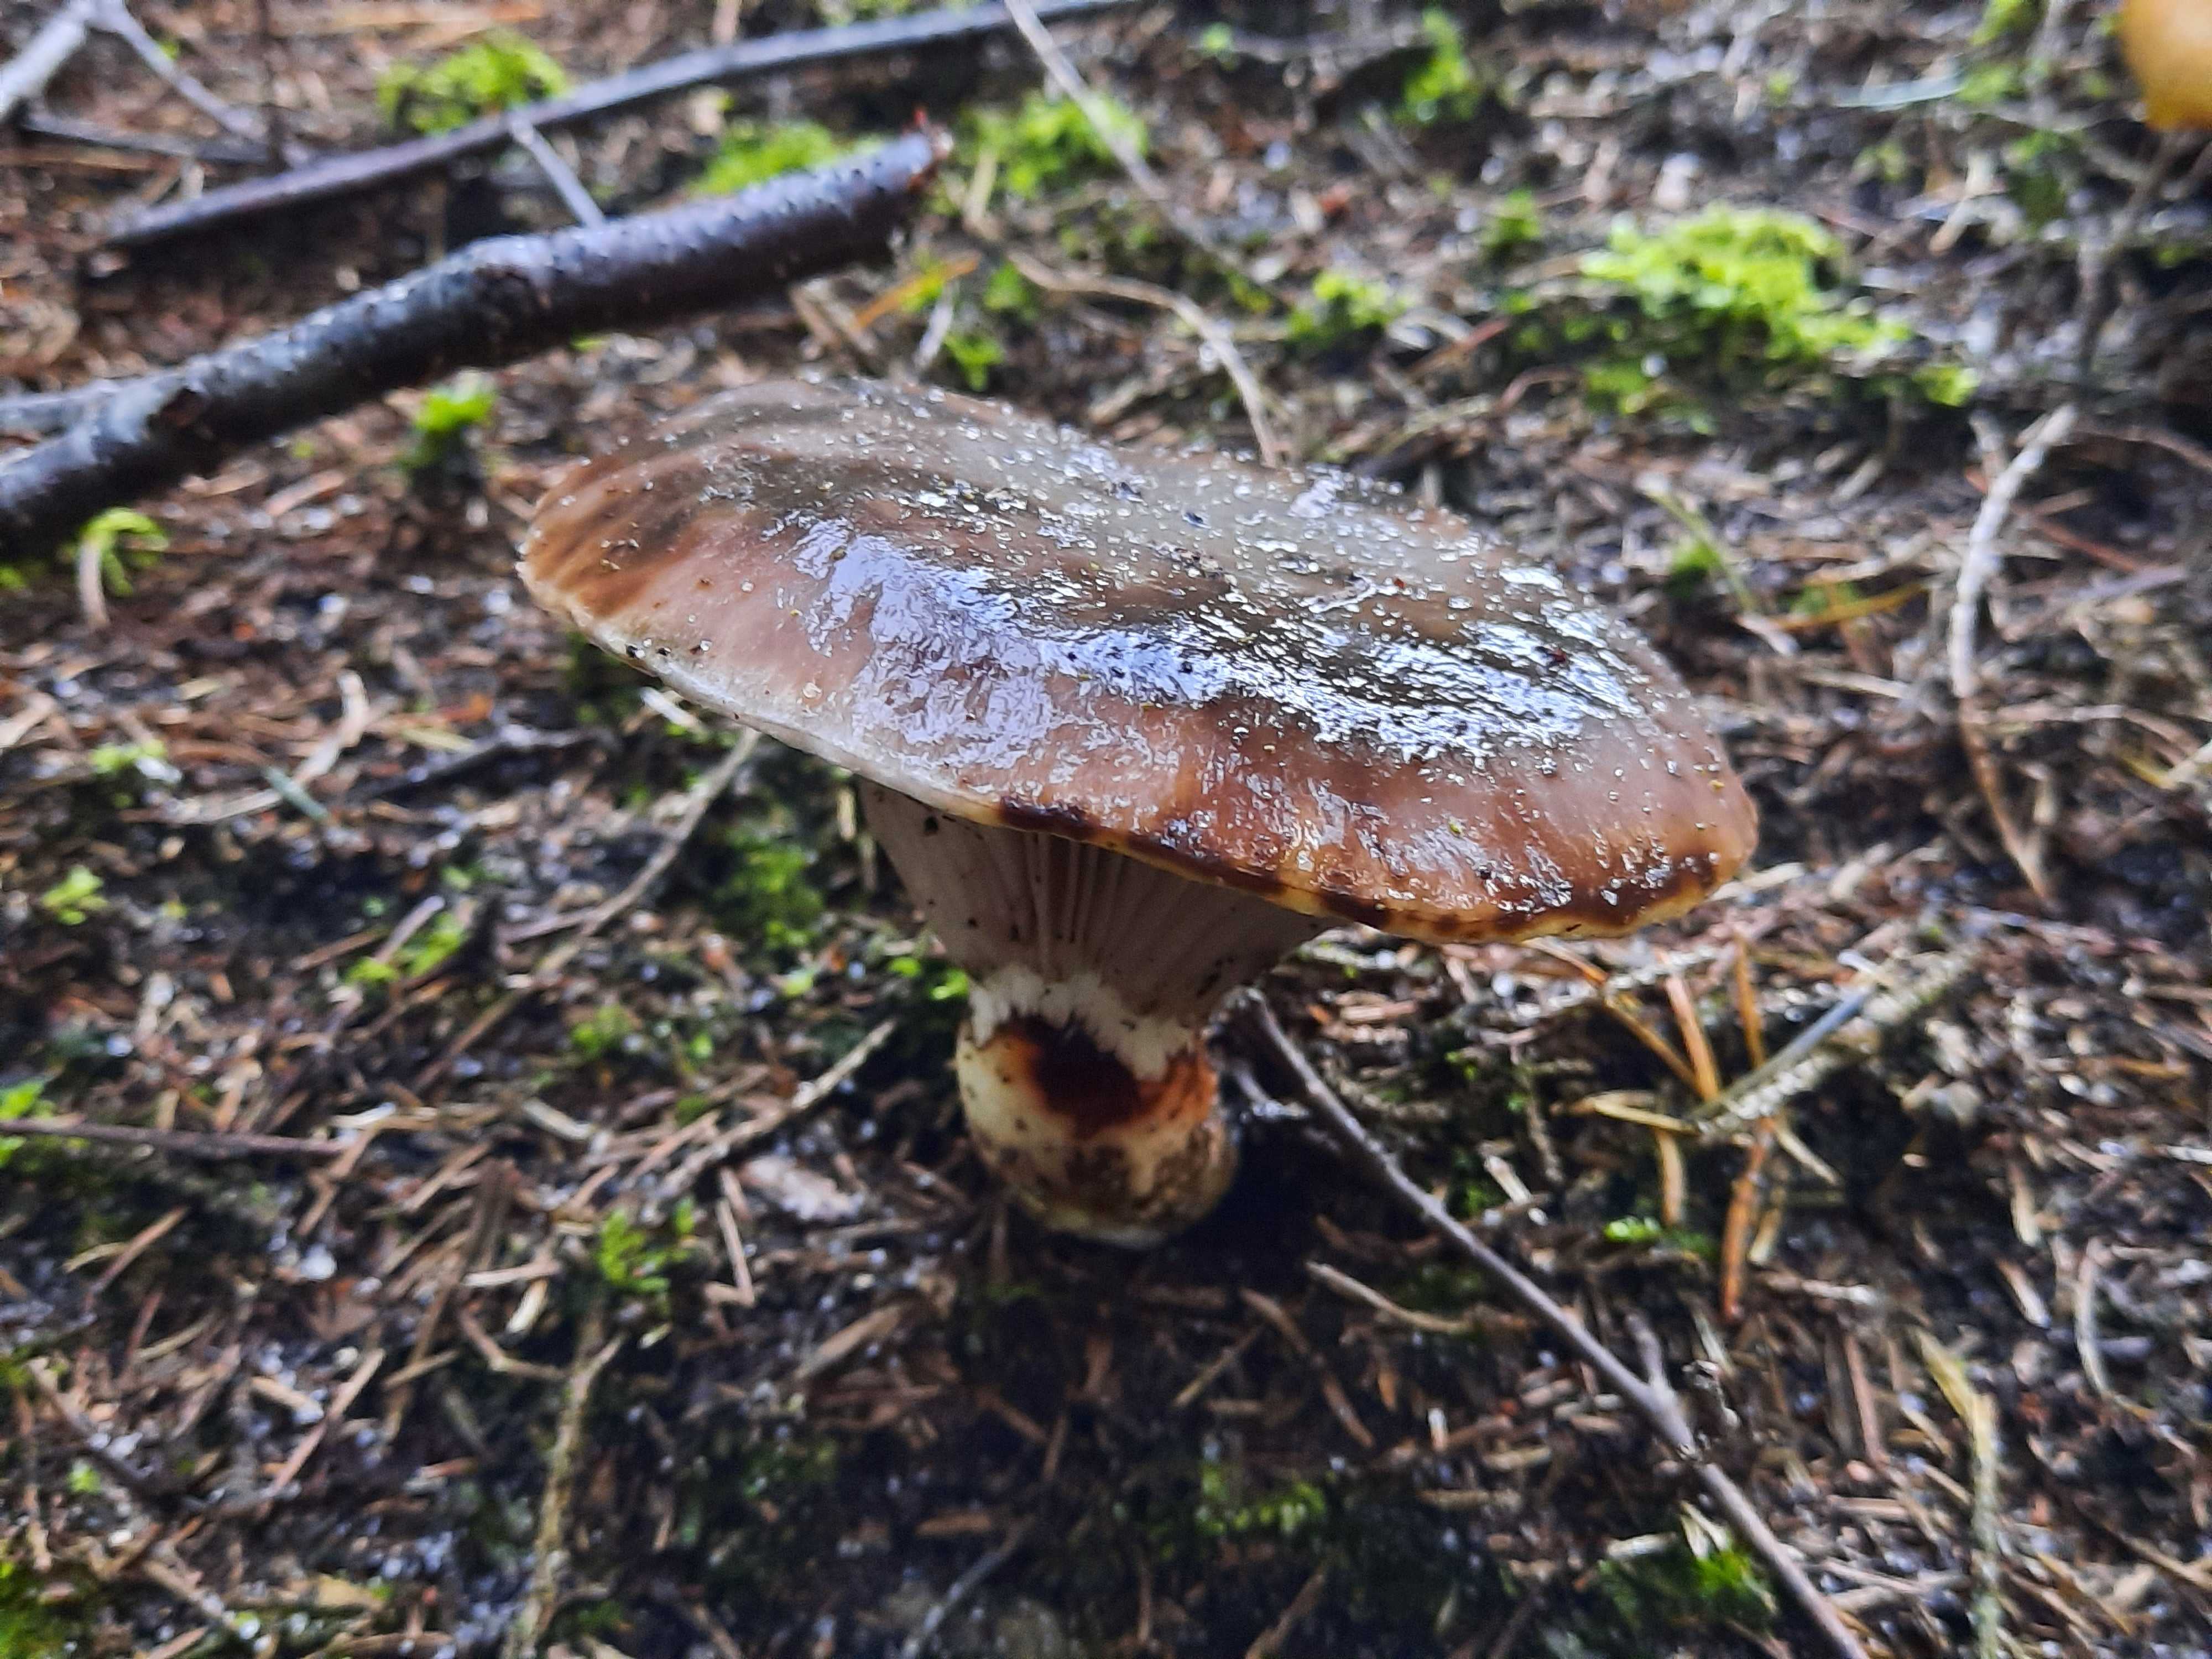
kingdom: Fungi
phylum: Basidiomycota
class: Agaricomycetes
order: Boletales
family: Gomphidiaceae
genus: Gomphidius
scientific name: Gomphidius glutinosus
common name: grå slimslør
